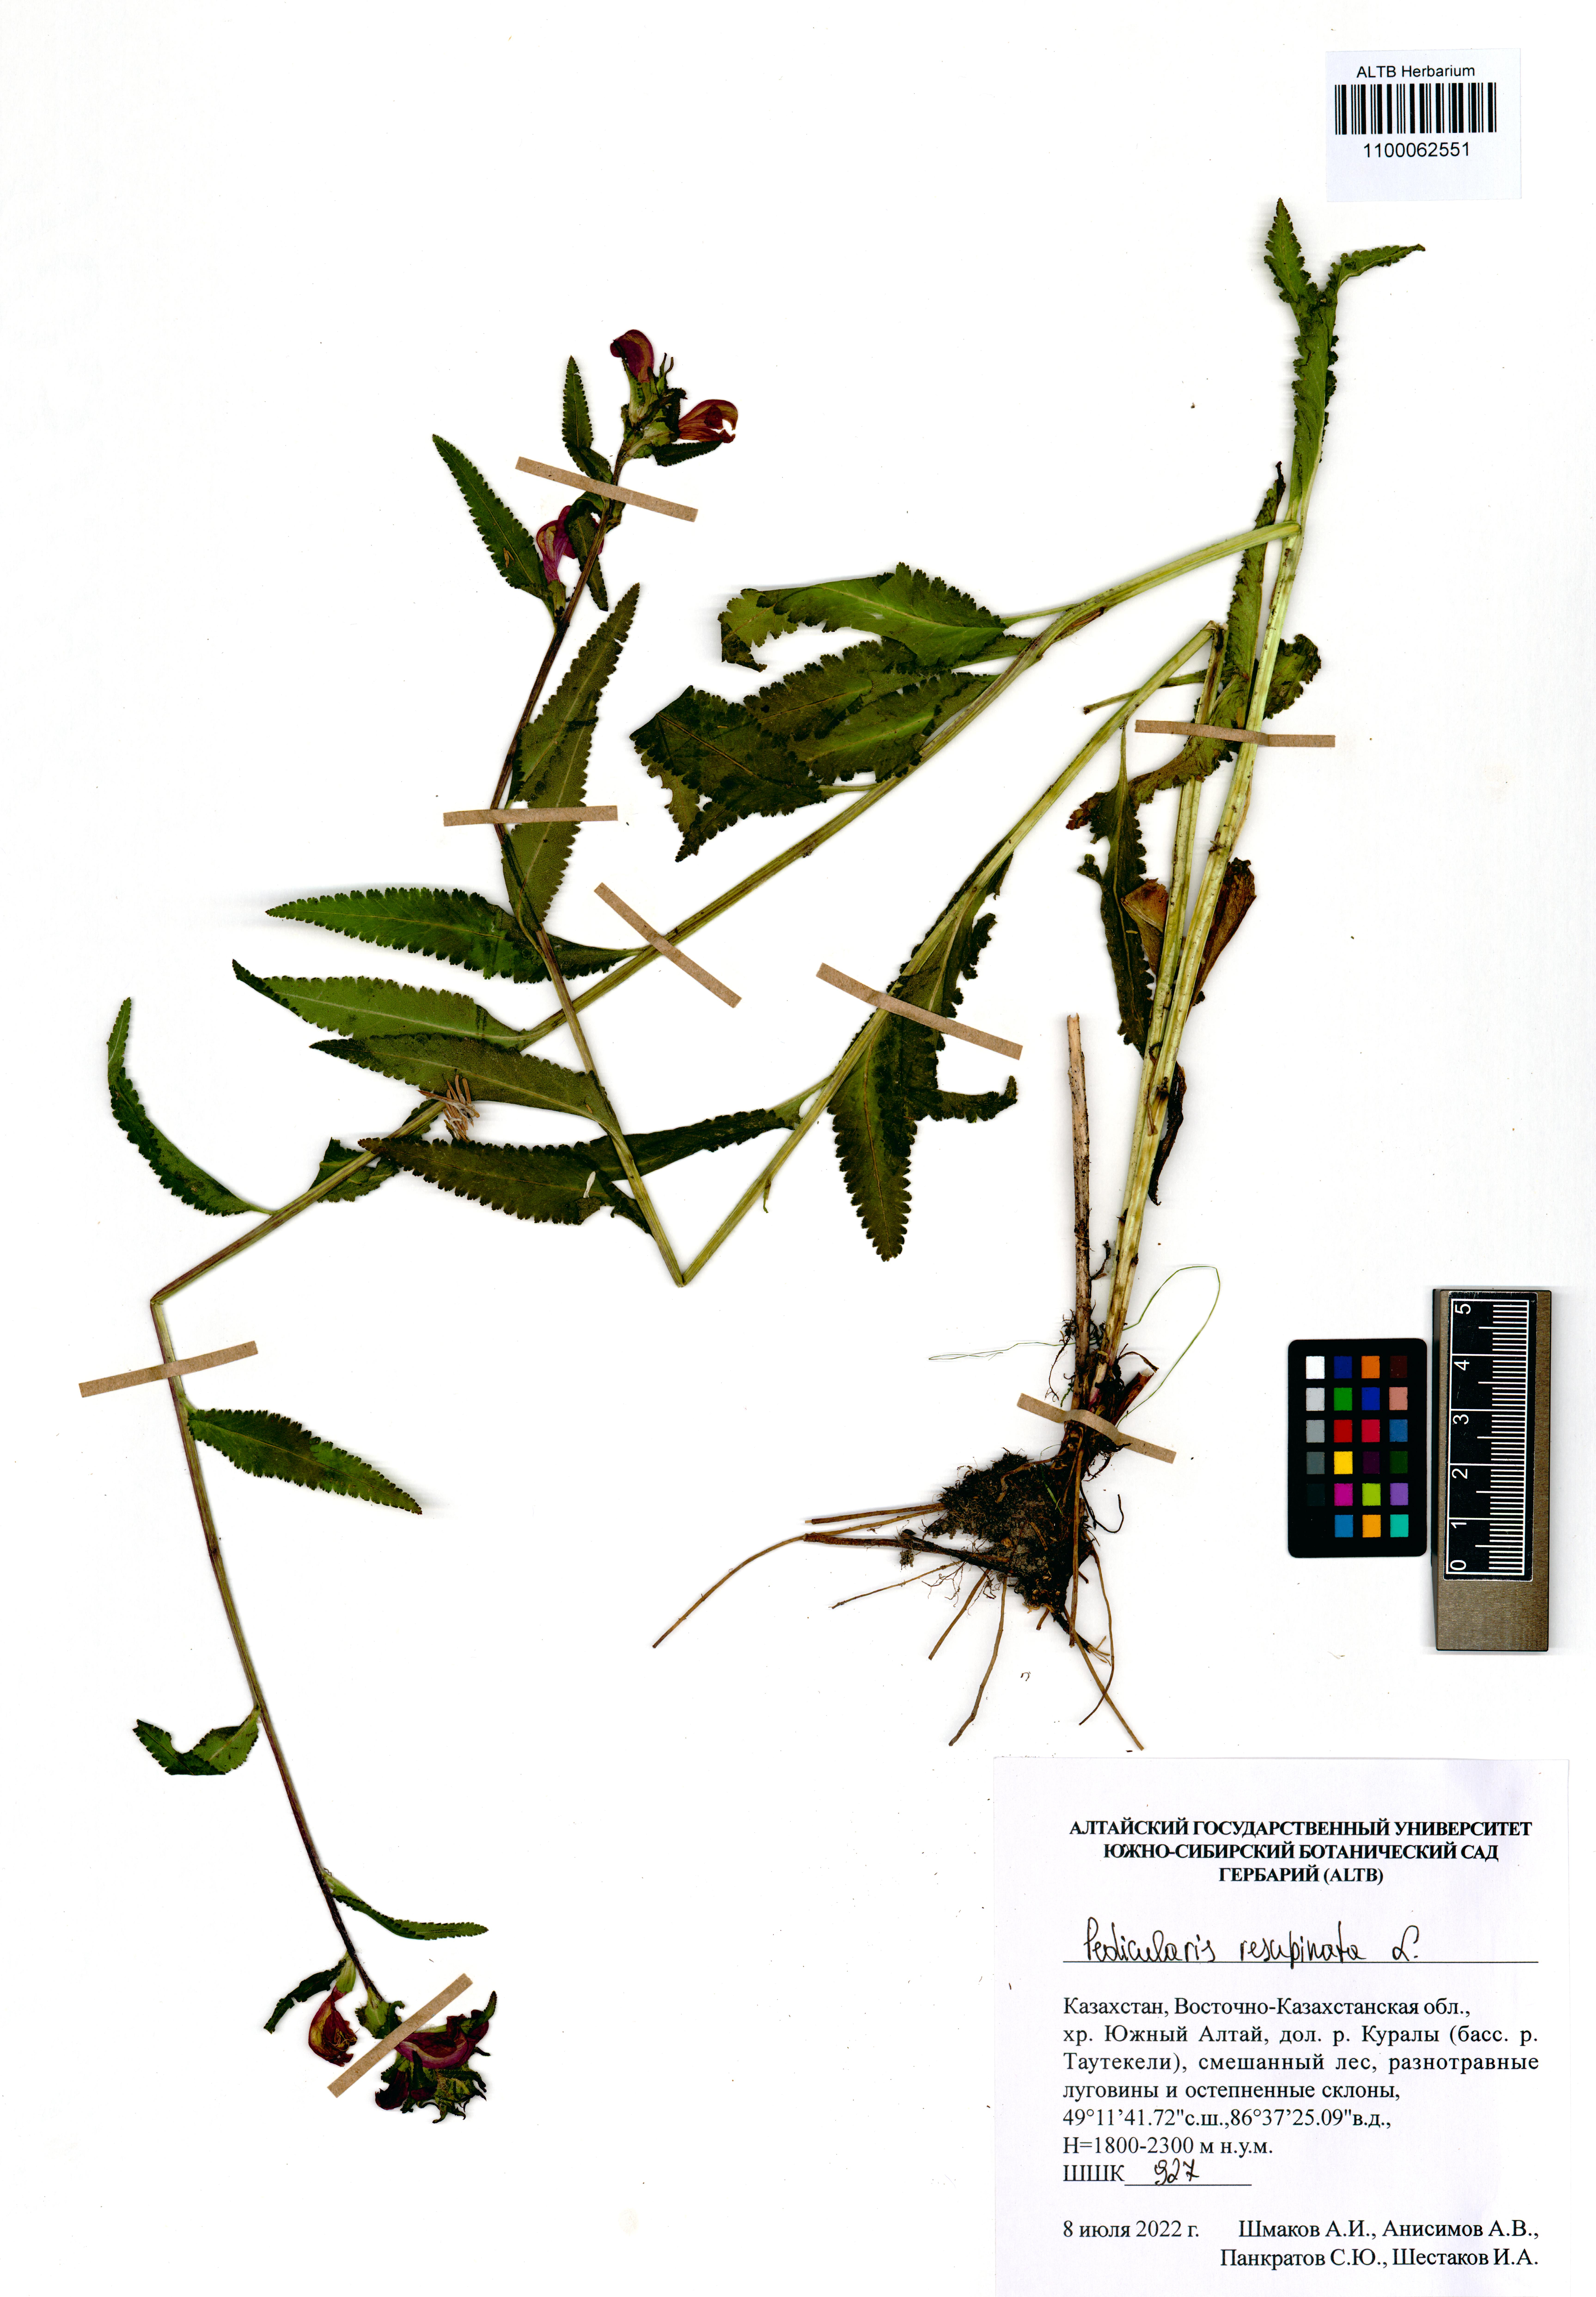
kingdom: Plantae
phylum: Tracheophyta
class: Magnoliopsida
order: Lamiales
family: Orobanchaceae
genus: Pedicularis
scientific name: Pedicularis resupinata
